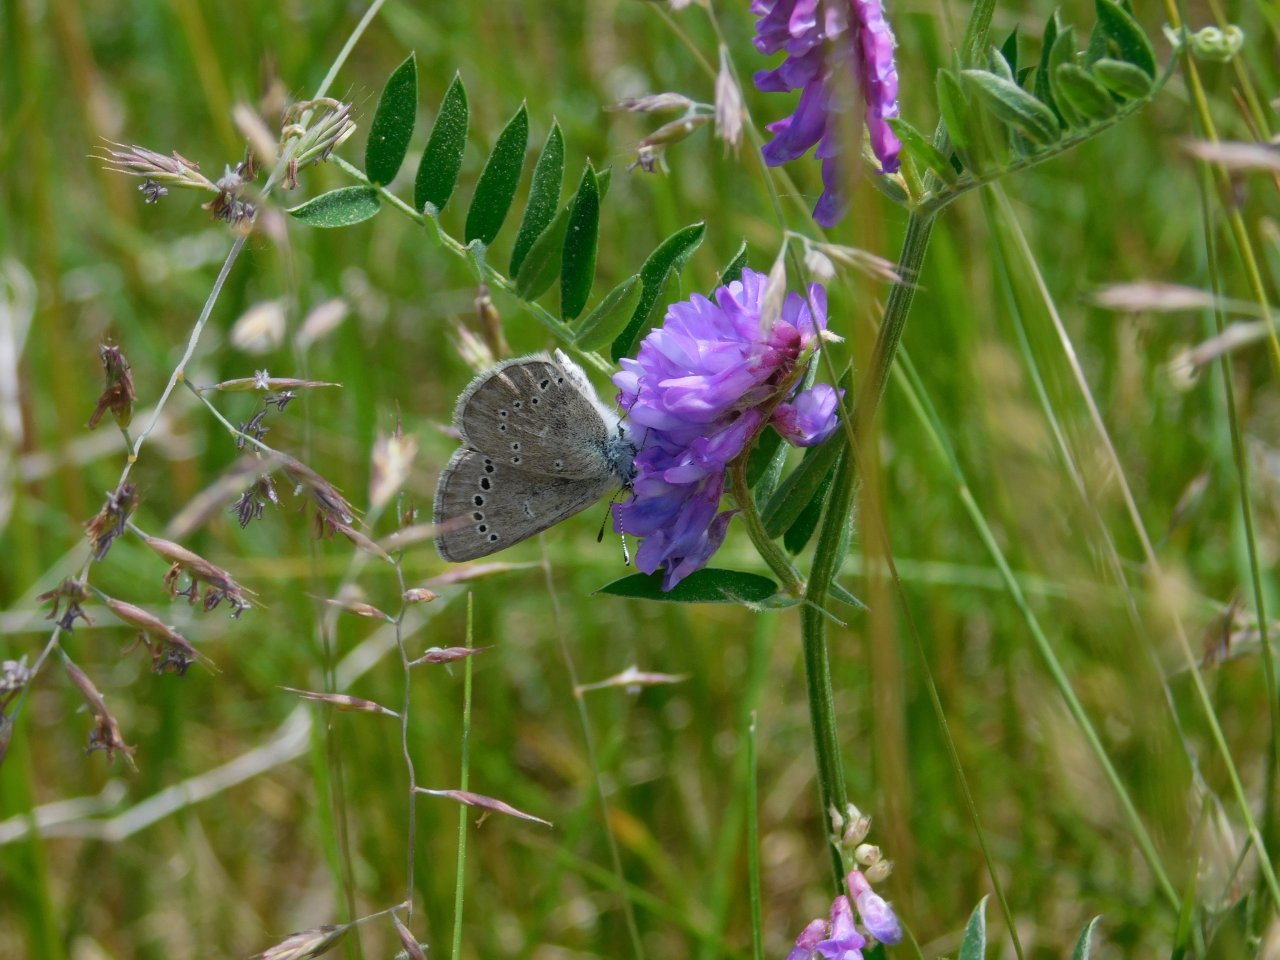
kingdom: Animalia
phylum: Arthropoda
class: Insecta
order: Lepidoptera
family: Lycaenidae
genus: Glaucopsyche
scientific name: Glaucopsyche lygdamus
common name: Silvery Blue
